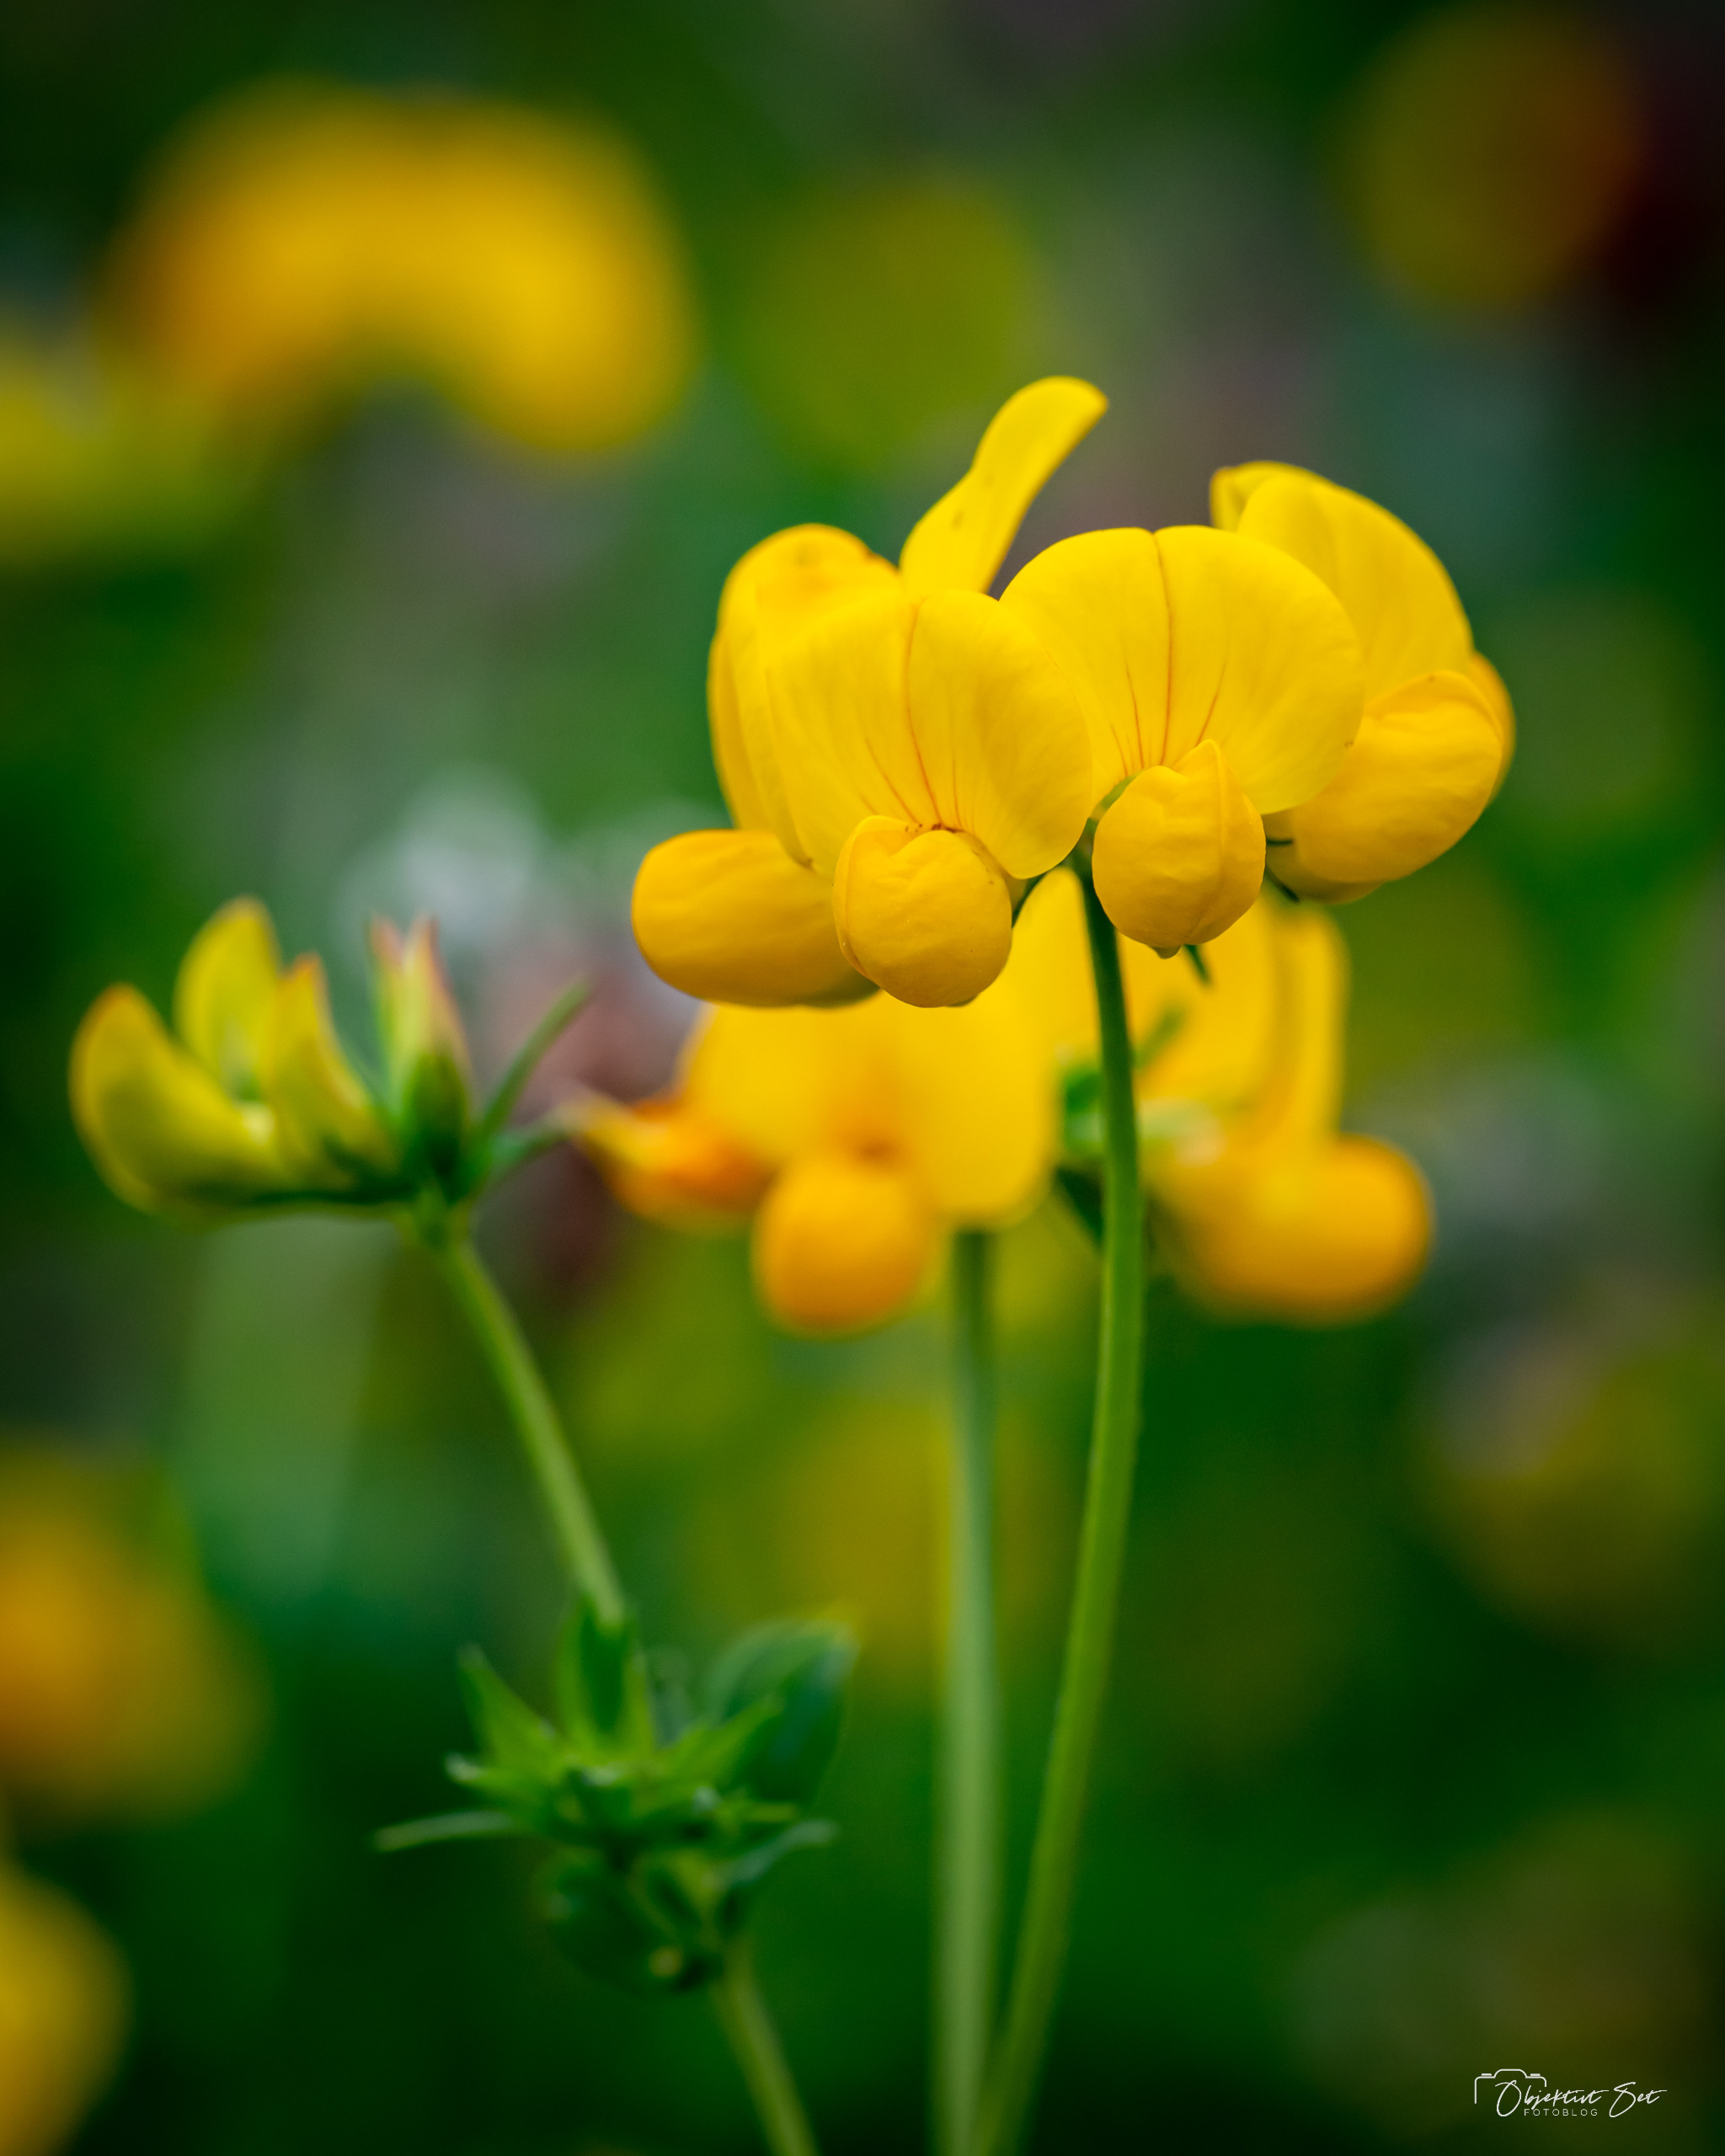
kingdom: Plantae
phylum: Tracheophyta
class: Magnoliopsida
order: Fabales
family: Fabaceae
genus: Lotus
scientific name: Lotus corniculatus
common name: Almindelig kællingetand
